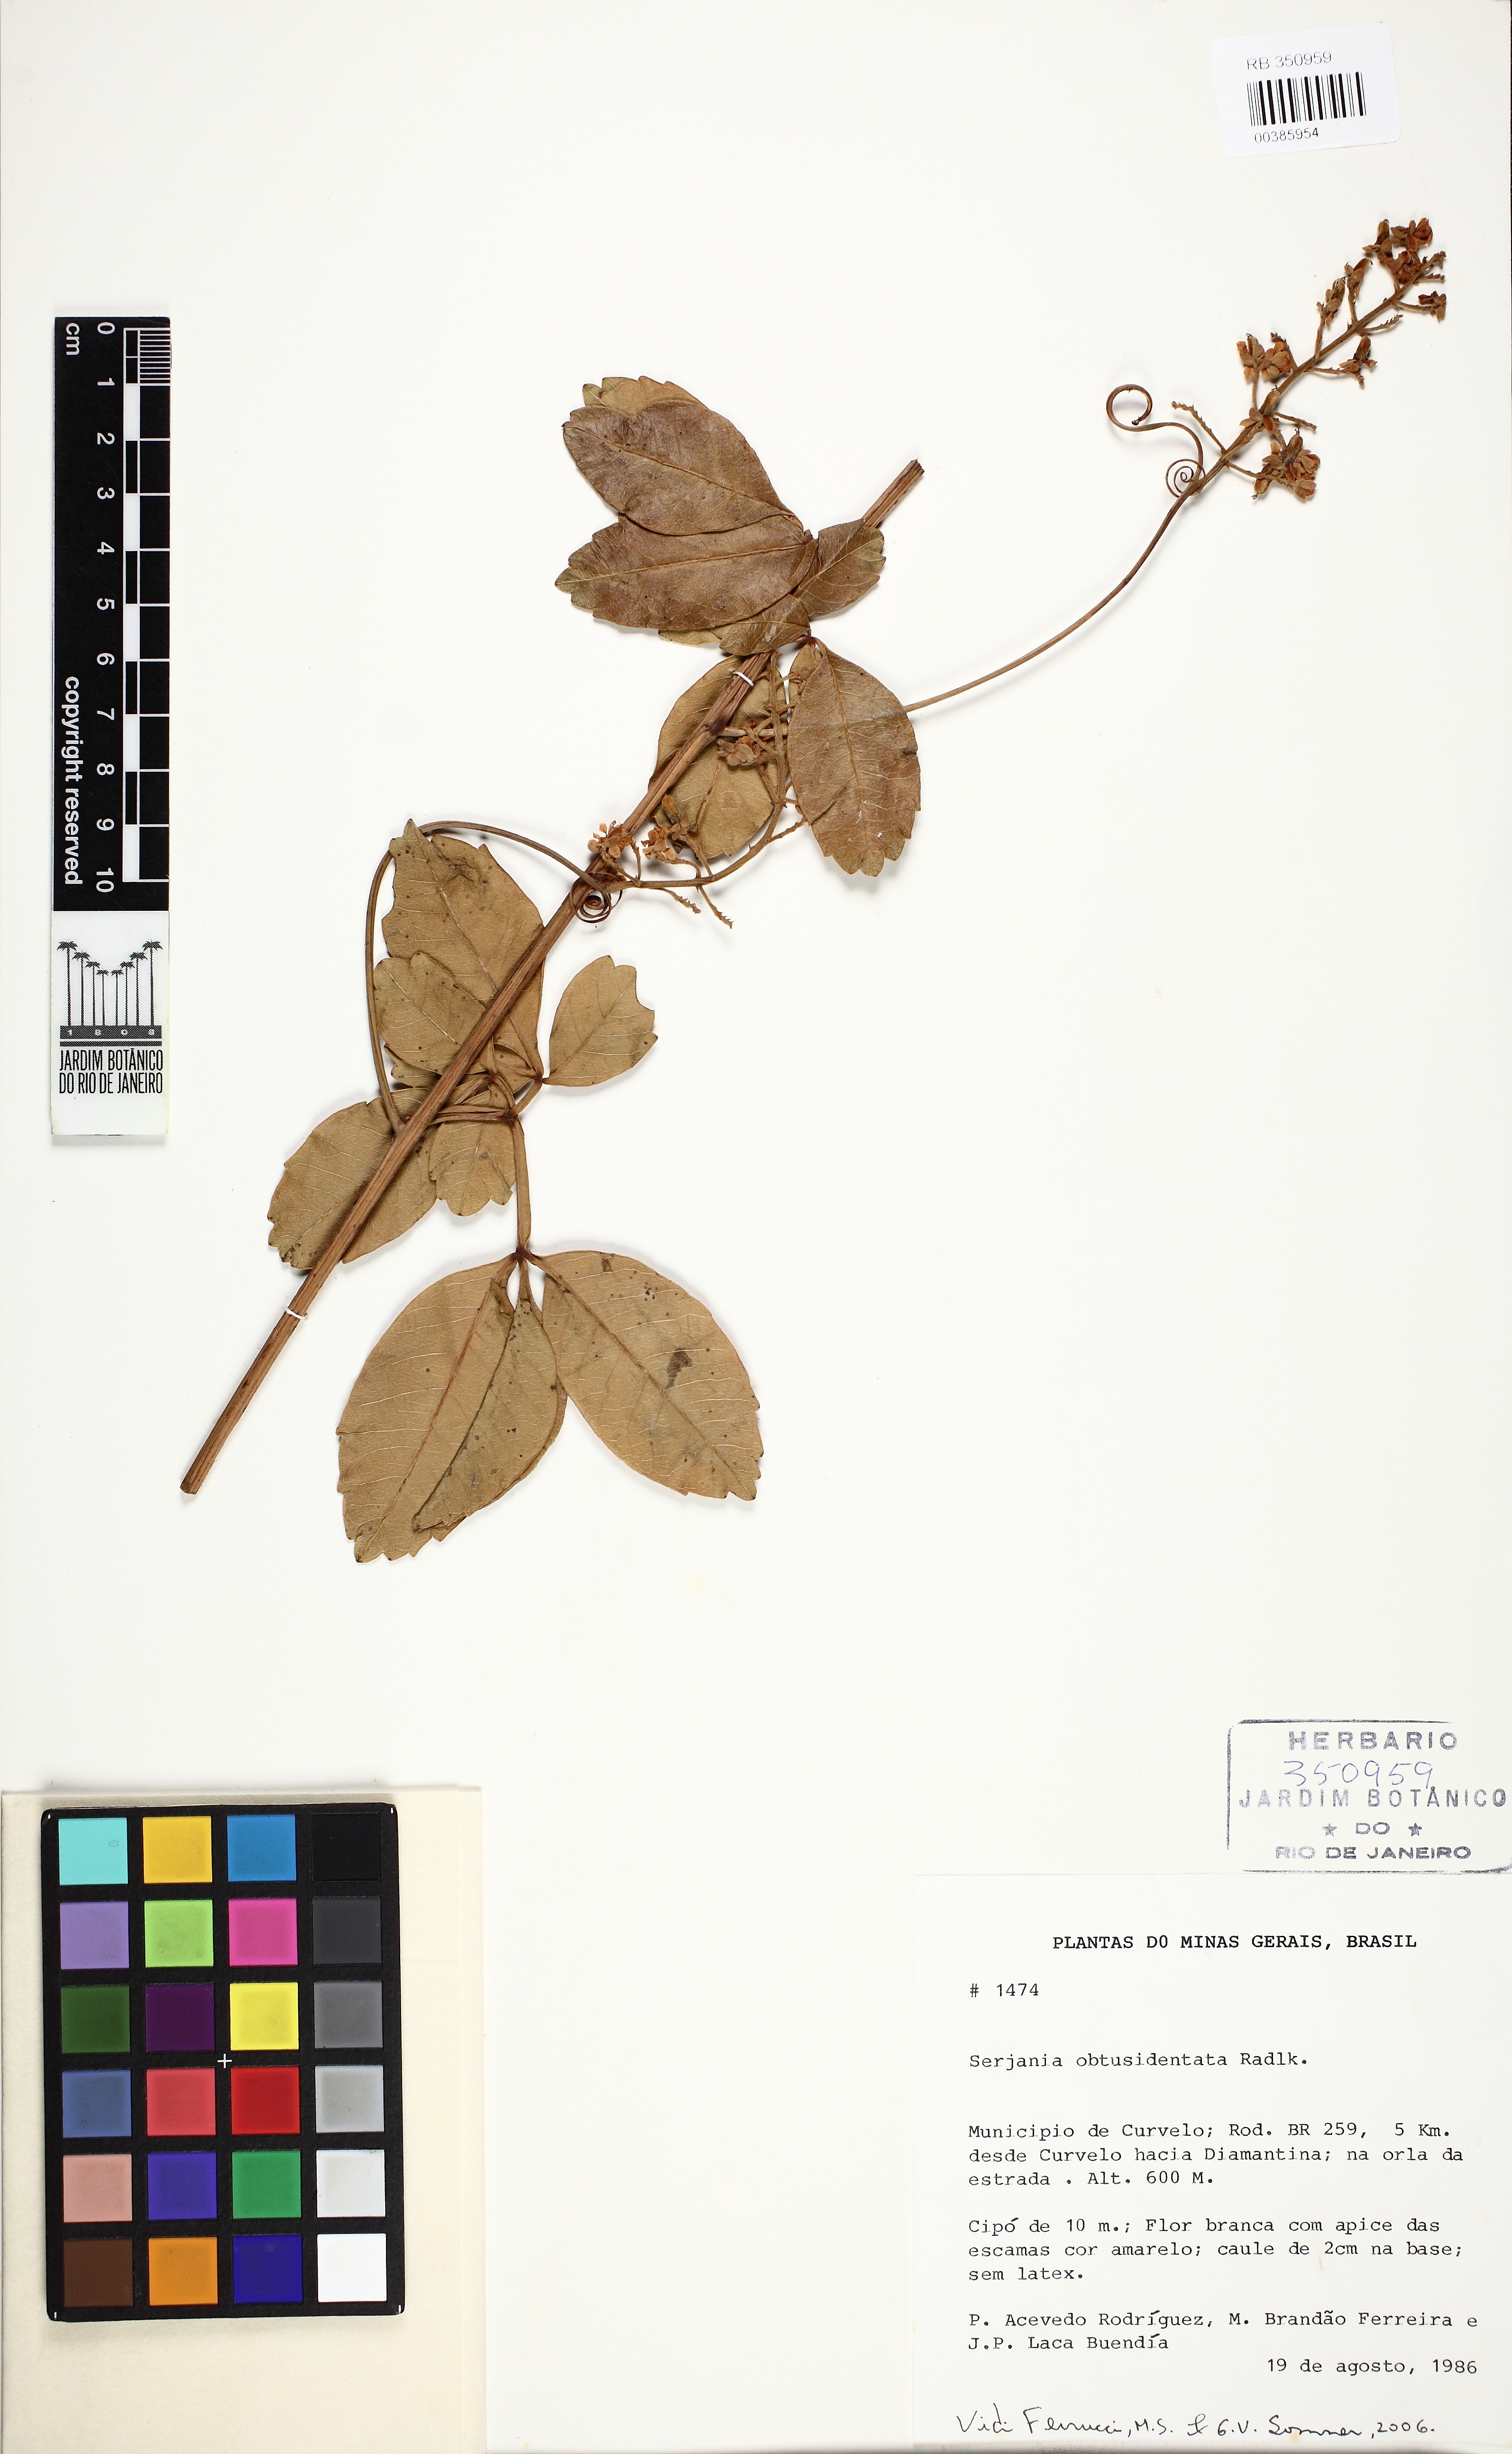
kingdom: Plantae
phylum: Tracheophyta
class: Magnoliopsida
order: Sapindales
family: Sapindaceae
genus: Serjania
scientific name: Serjania obtusidentata
